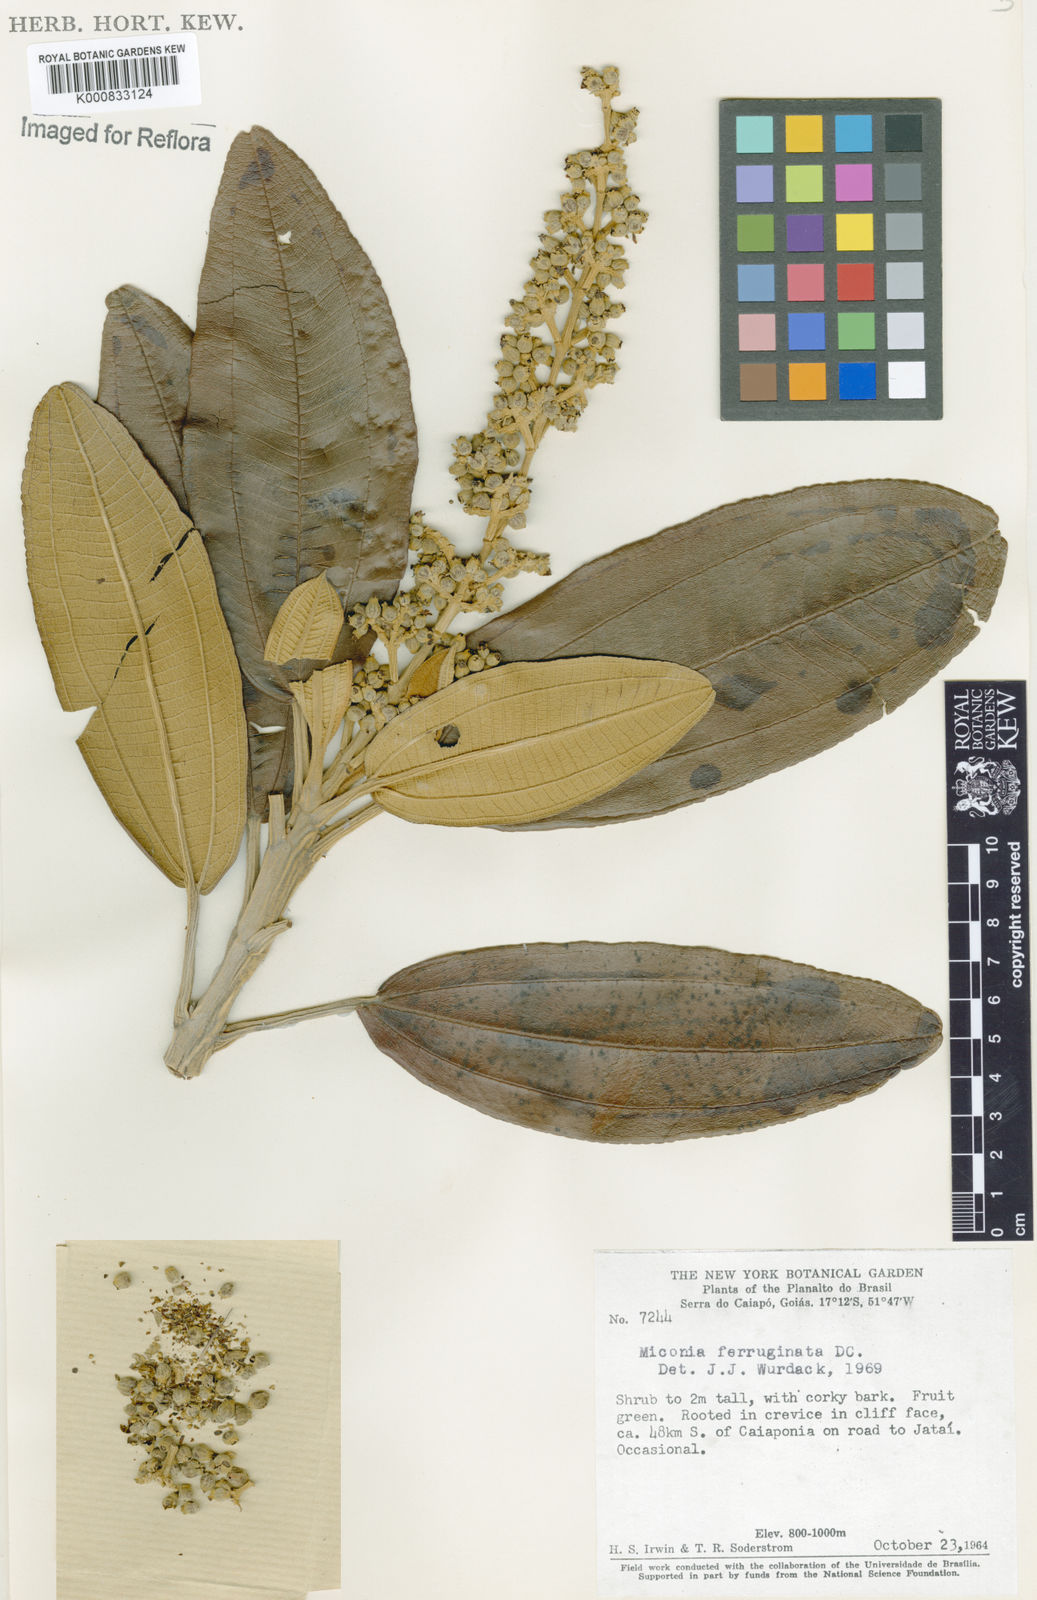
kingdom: Plantae
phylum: Tracheophyta
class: Magnoliopsida
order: Myrtales
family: Melastomataceae
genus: Miconia
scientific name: Miconia ferruginata
